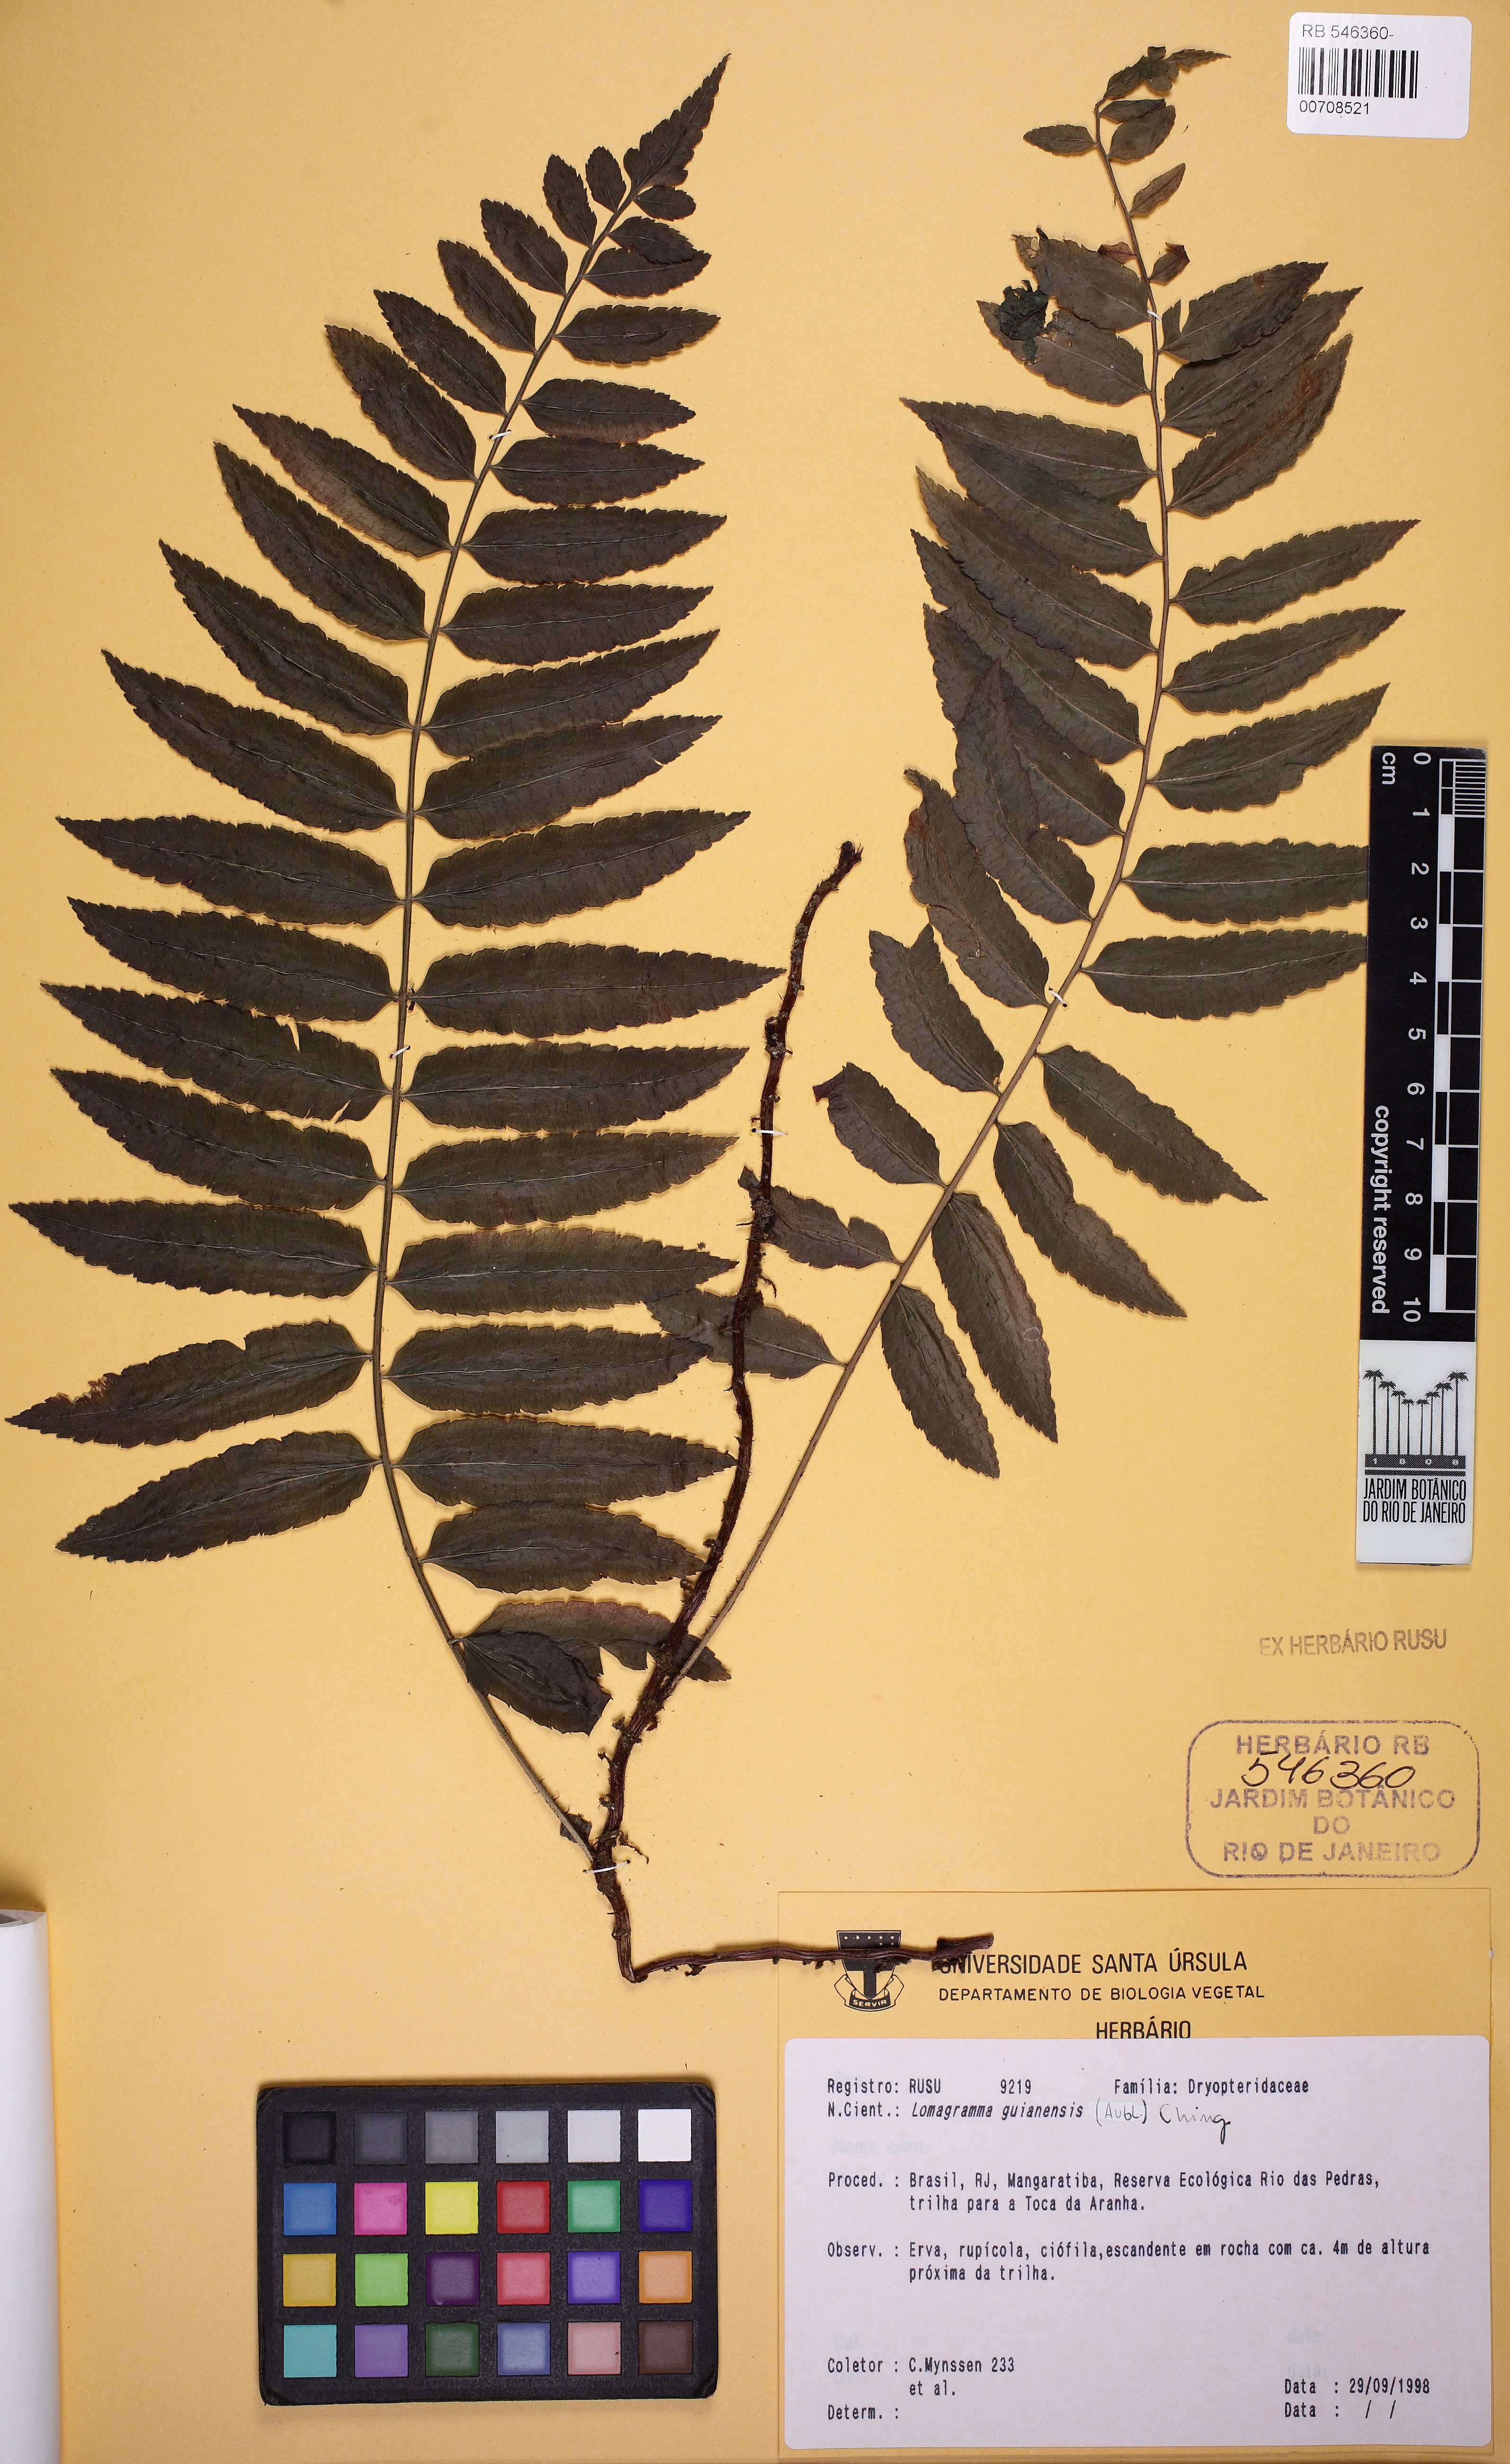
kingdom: Plantae
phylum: Tracheophyta
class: Polypodiopsida
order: Polypodiales
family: Dryopteridaceae
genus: Mickelia
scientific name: Mickelia guianensis
